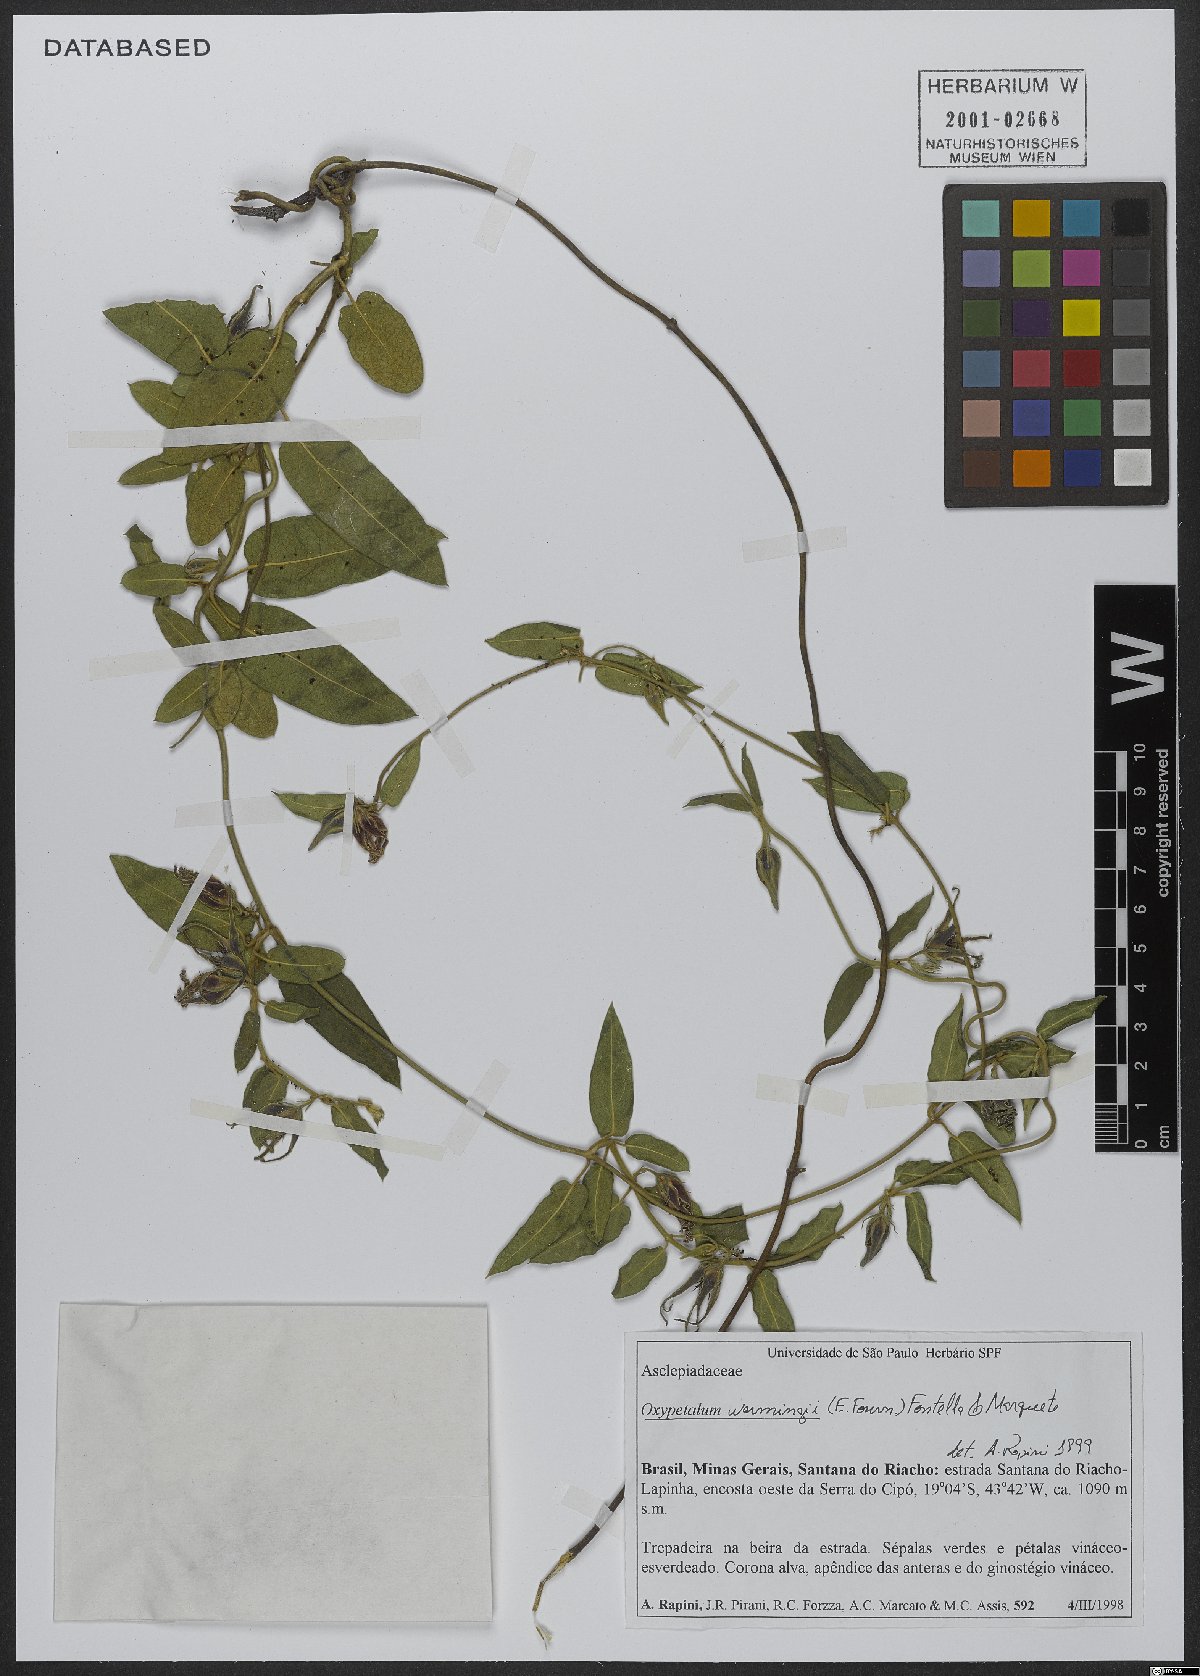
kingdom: Plantae
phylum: Tracheophyta
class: Magnoliopsida
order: Gentianales
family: Apocynaceae
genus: Oxypetalum
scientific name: Oxypetalum warmingii
